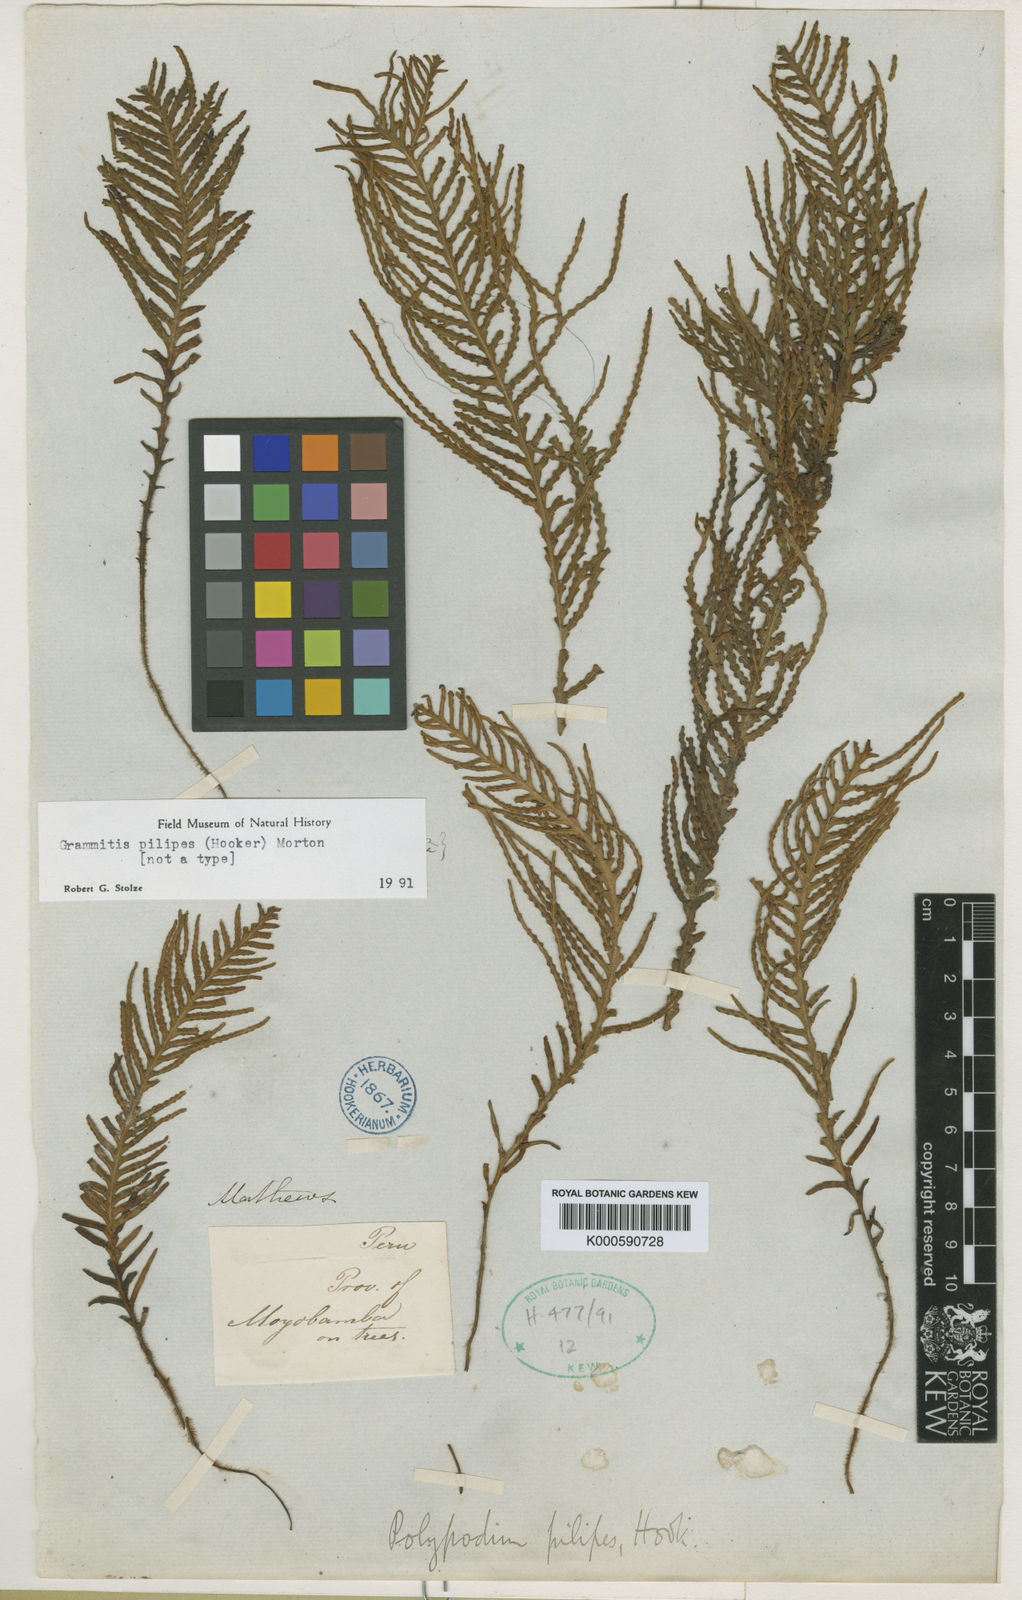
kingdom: Plantae
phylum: Tracheophyta
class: Polypodiopsida
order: Polypodiales
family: Polypodiaceae
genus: Ceradenia
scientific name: Ceradenia pilipes
